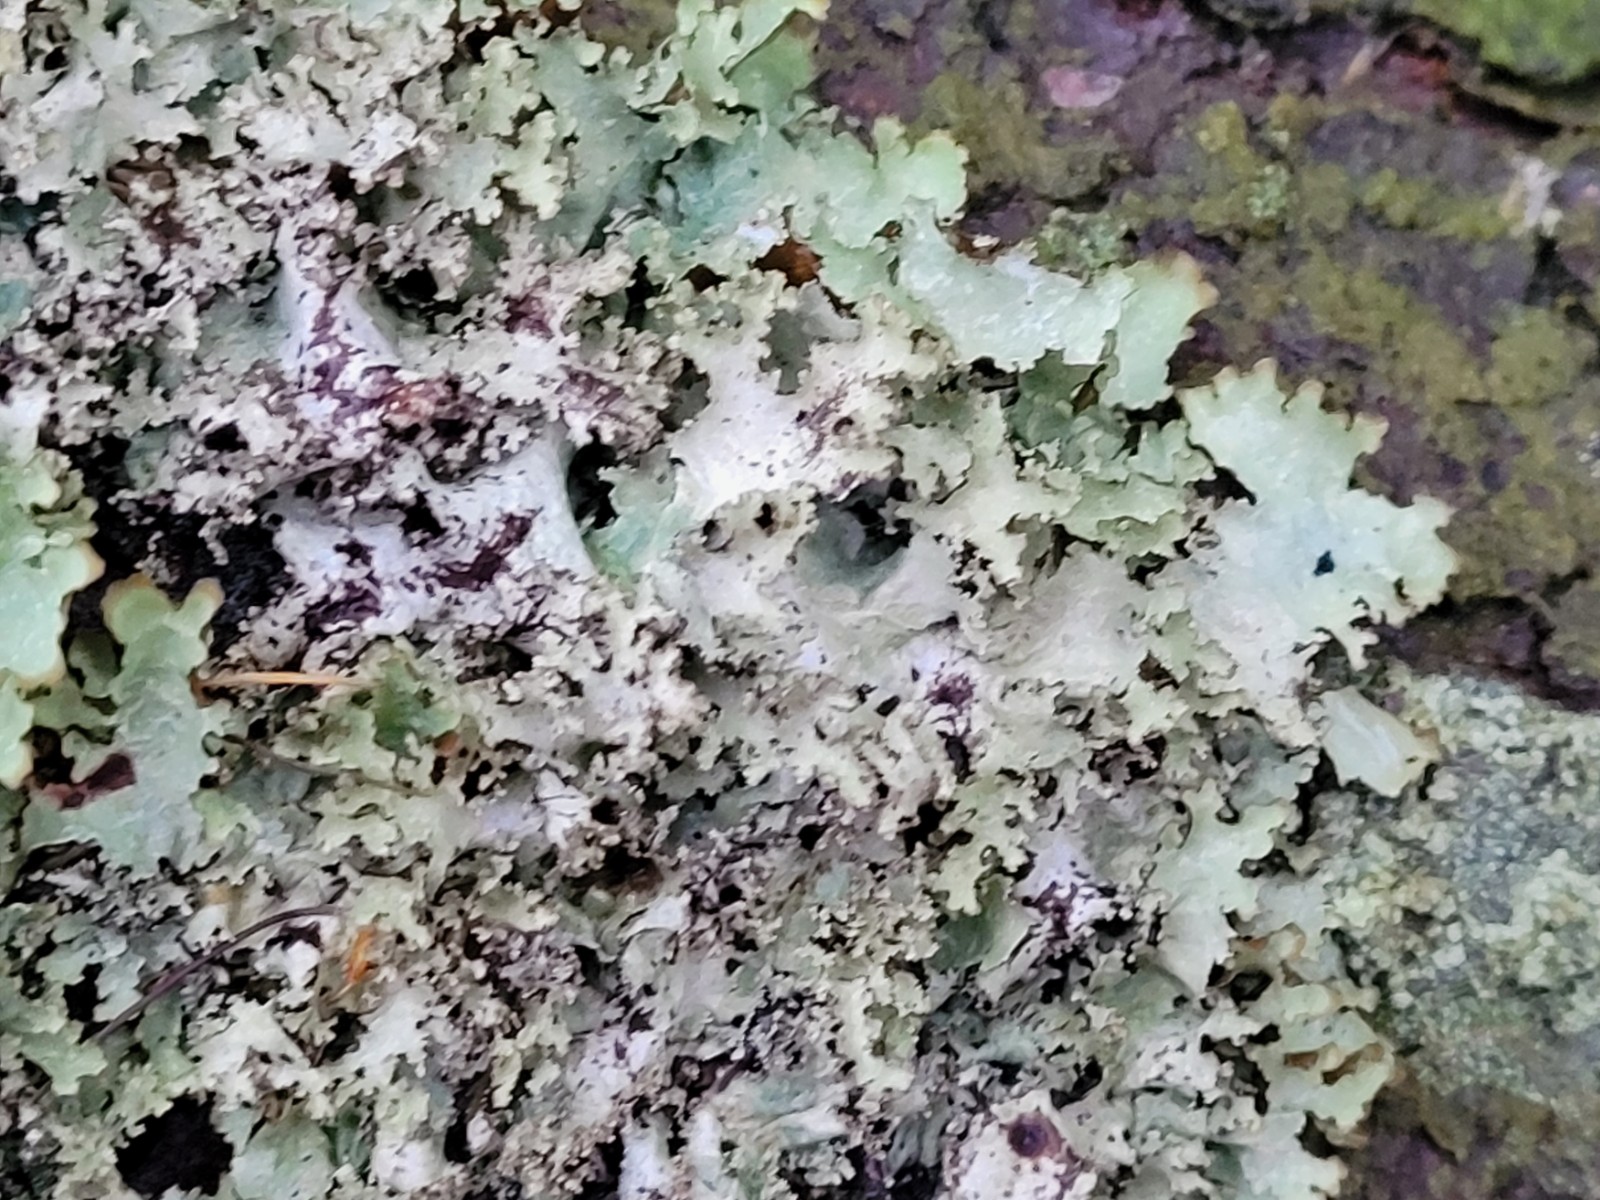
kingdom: Fungi
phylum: Ascomycota
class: Lecanoromycetes
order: Lecanorales
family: Parmeliaceae
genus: Platismatia
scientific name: Platismatia glauca
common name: blågrå papirlav
